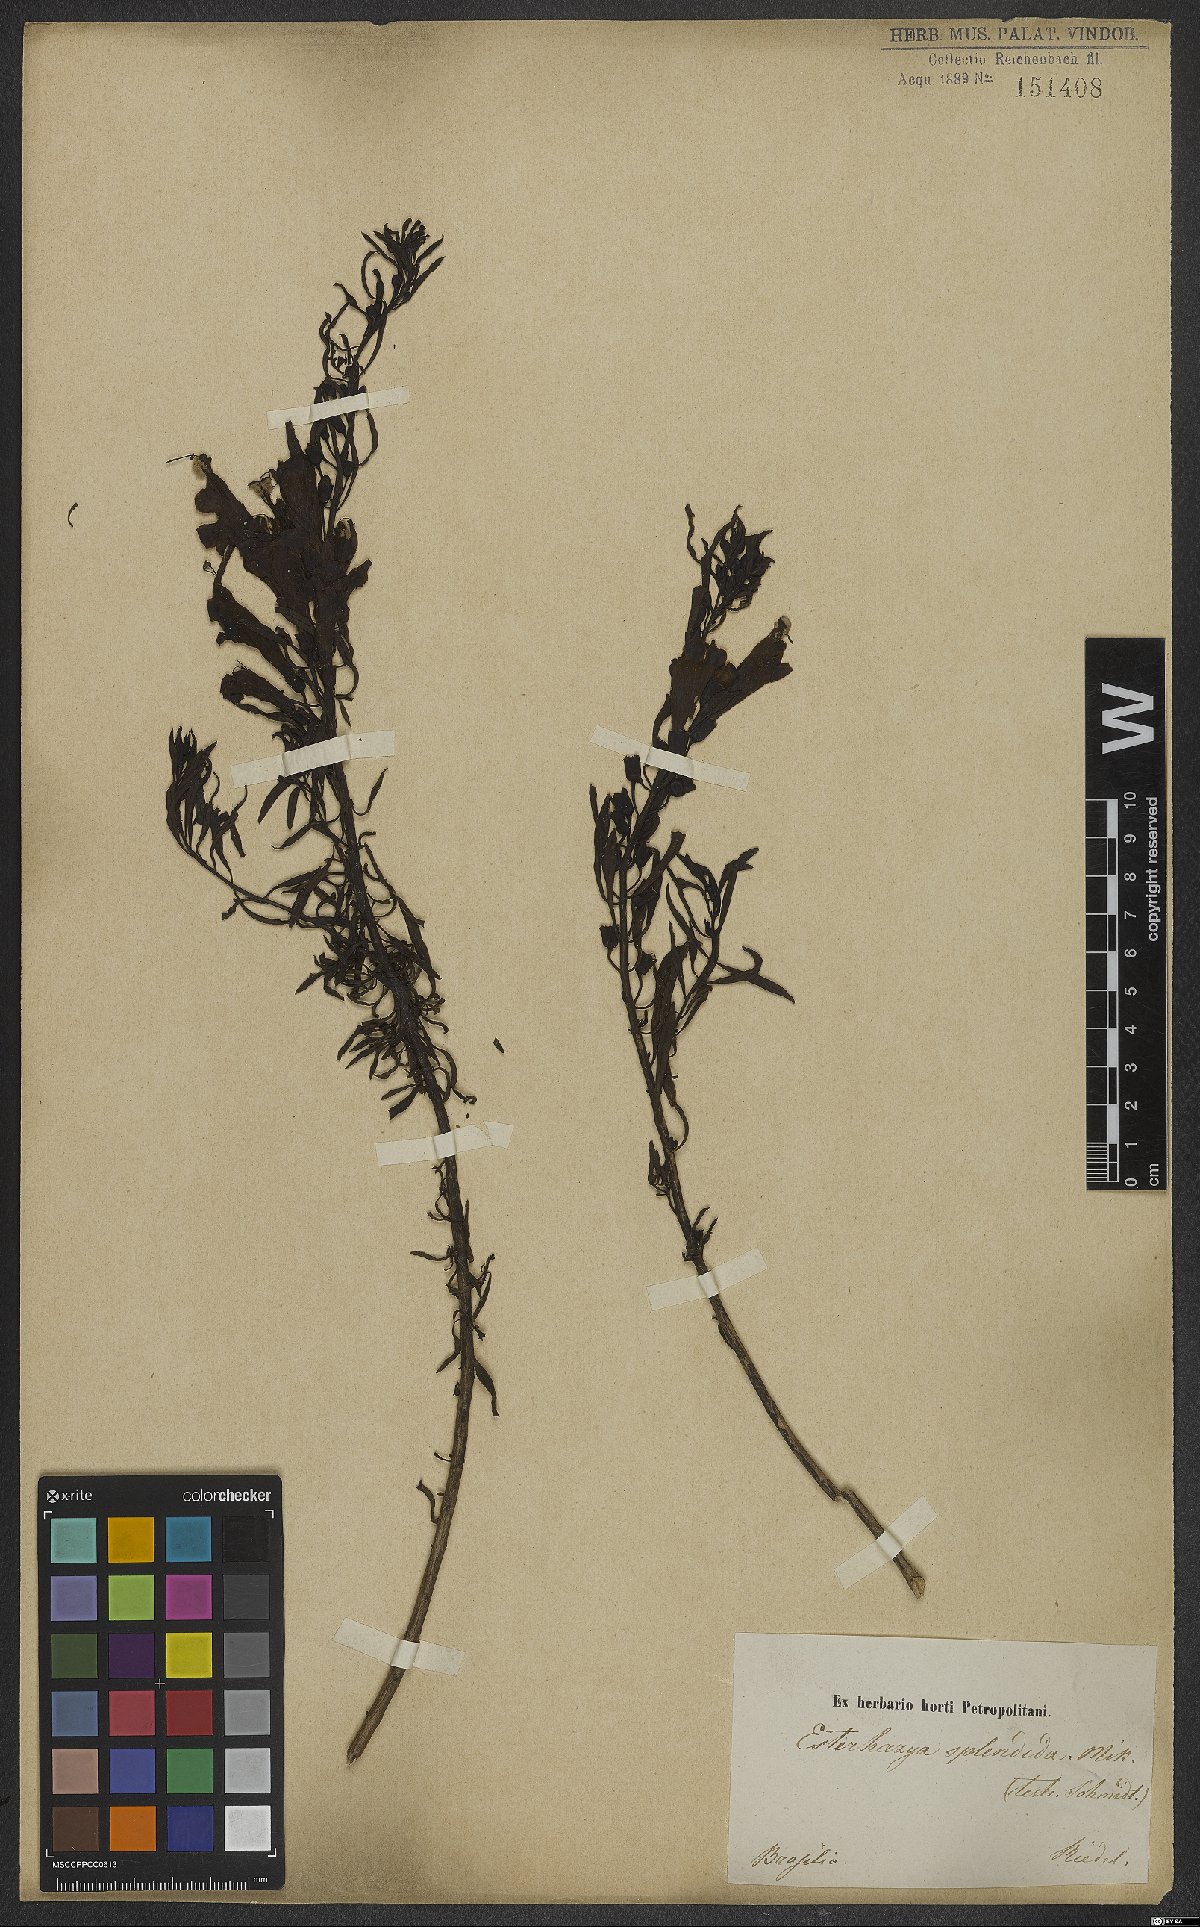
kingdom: Plantae
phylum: Tracheophyta
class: Magnoliopsida
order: Lamiales
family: Orobanchaceae
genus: Esterhazya
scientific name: Esterhazya splendida
